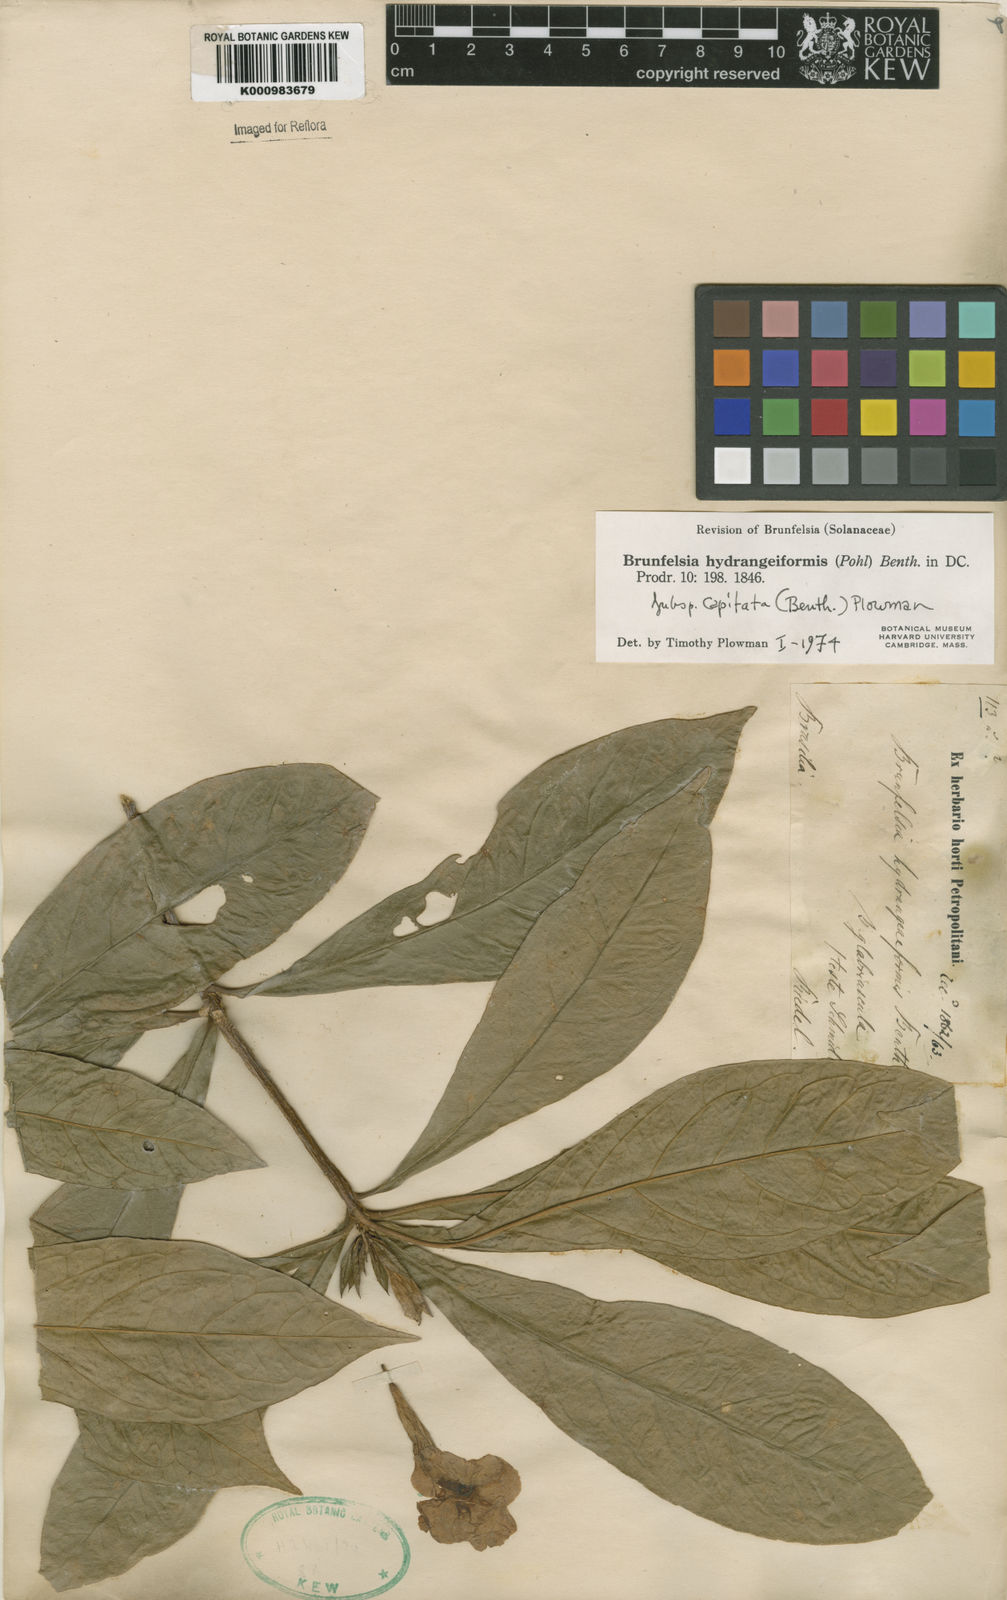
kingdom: Plantae
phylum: Tracheophyta
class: Magnoliopsida
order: Solanales
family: Solanaceae
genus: Solanum
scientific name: Solanum
